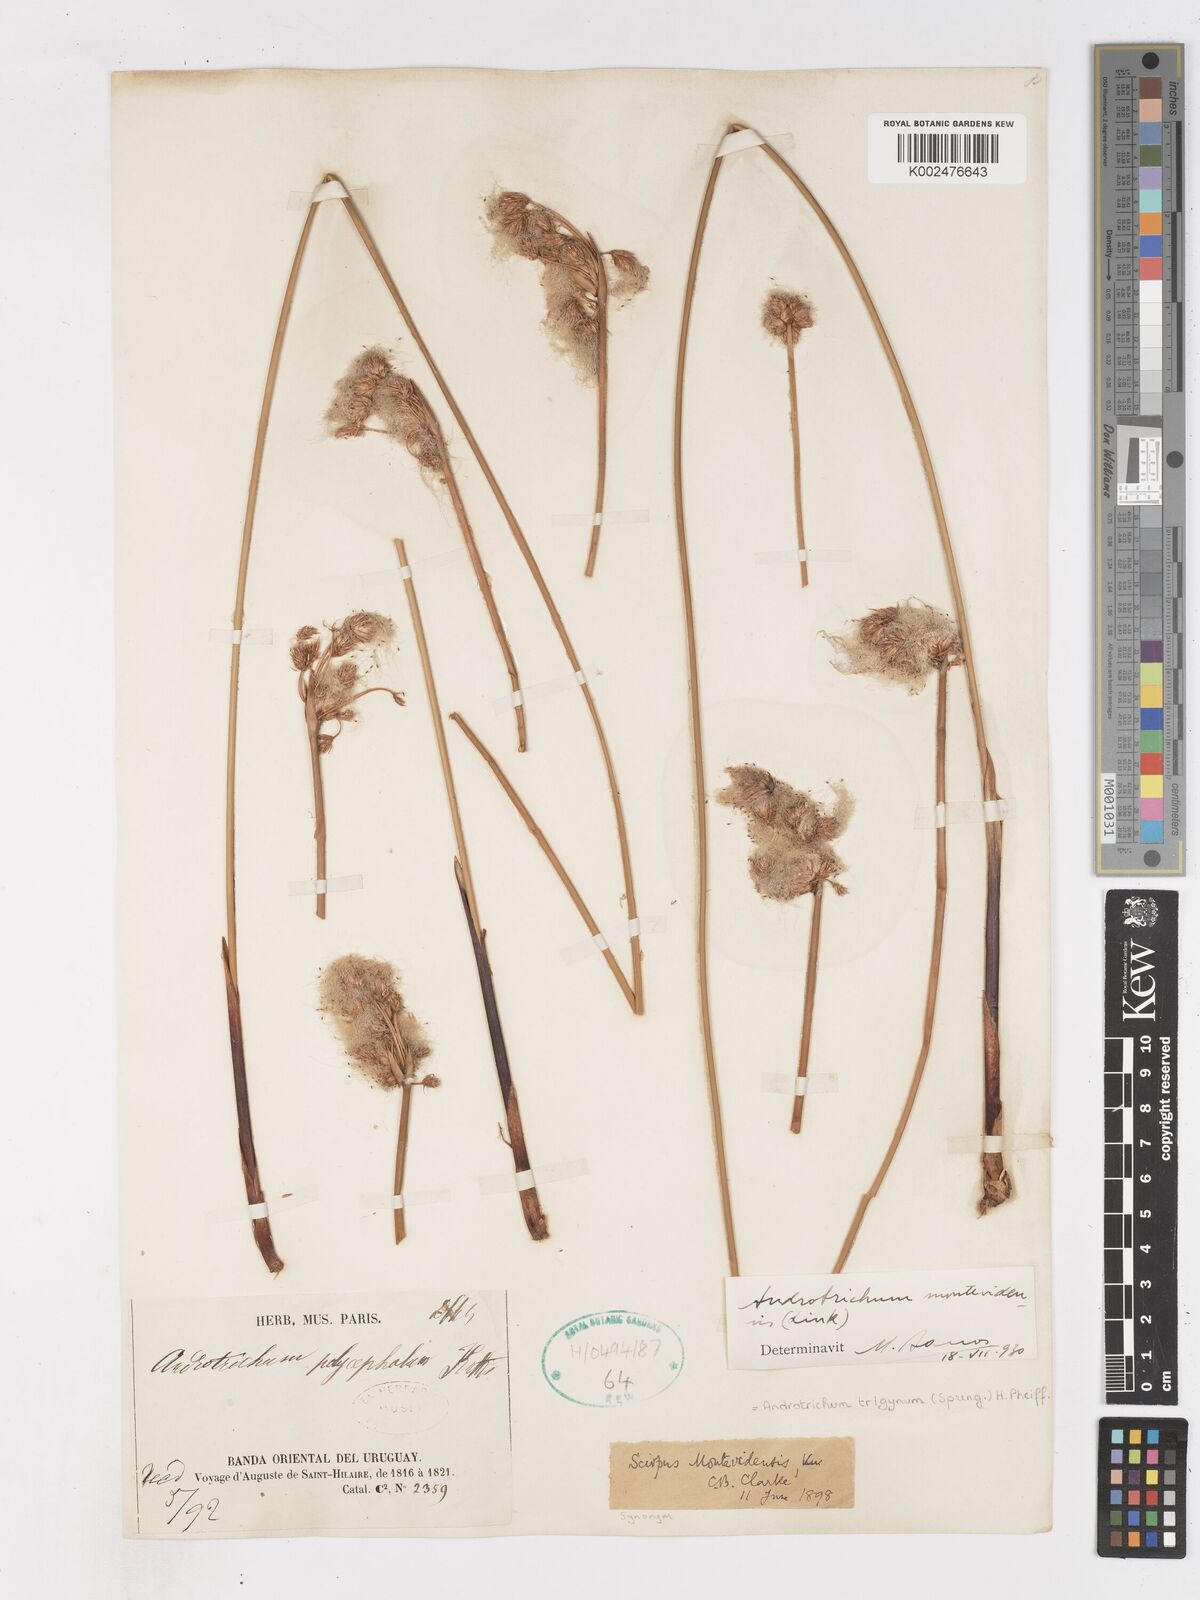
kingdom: Plantae
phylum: Tracheophyta
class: Liliopsida
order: Poales
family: Cyperaceae
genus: Cyperus
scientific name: Cyperus trigynus
